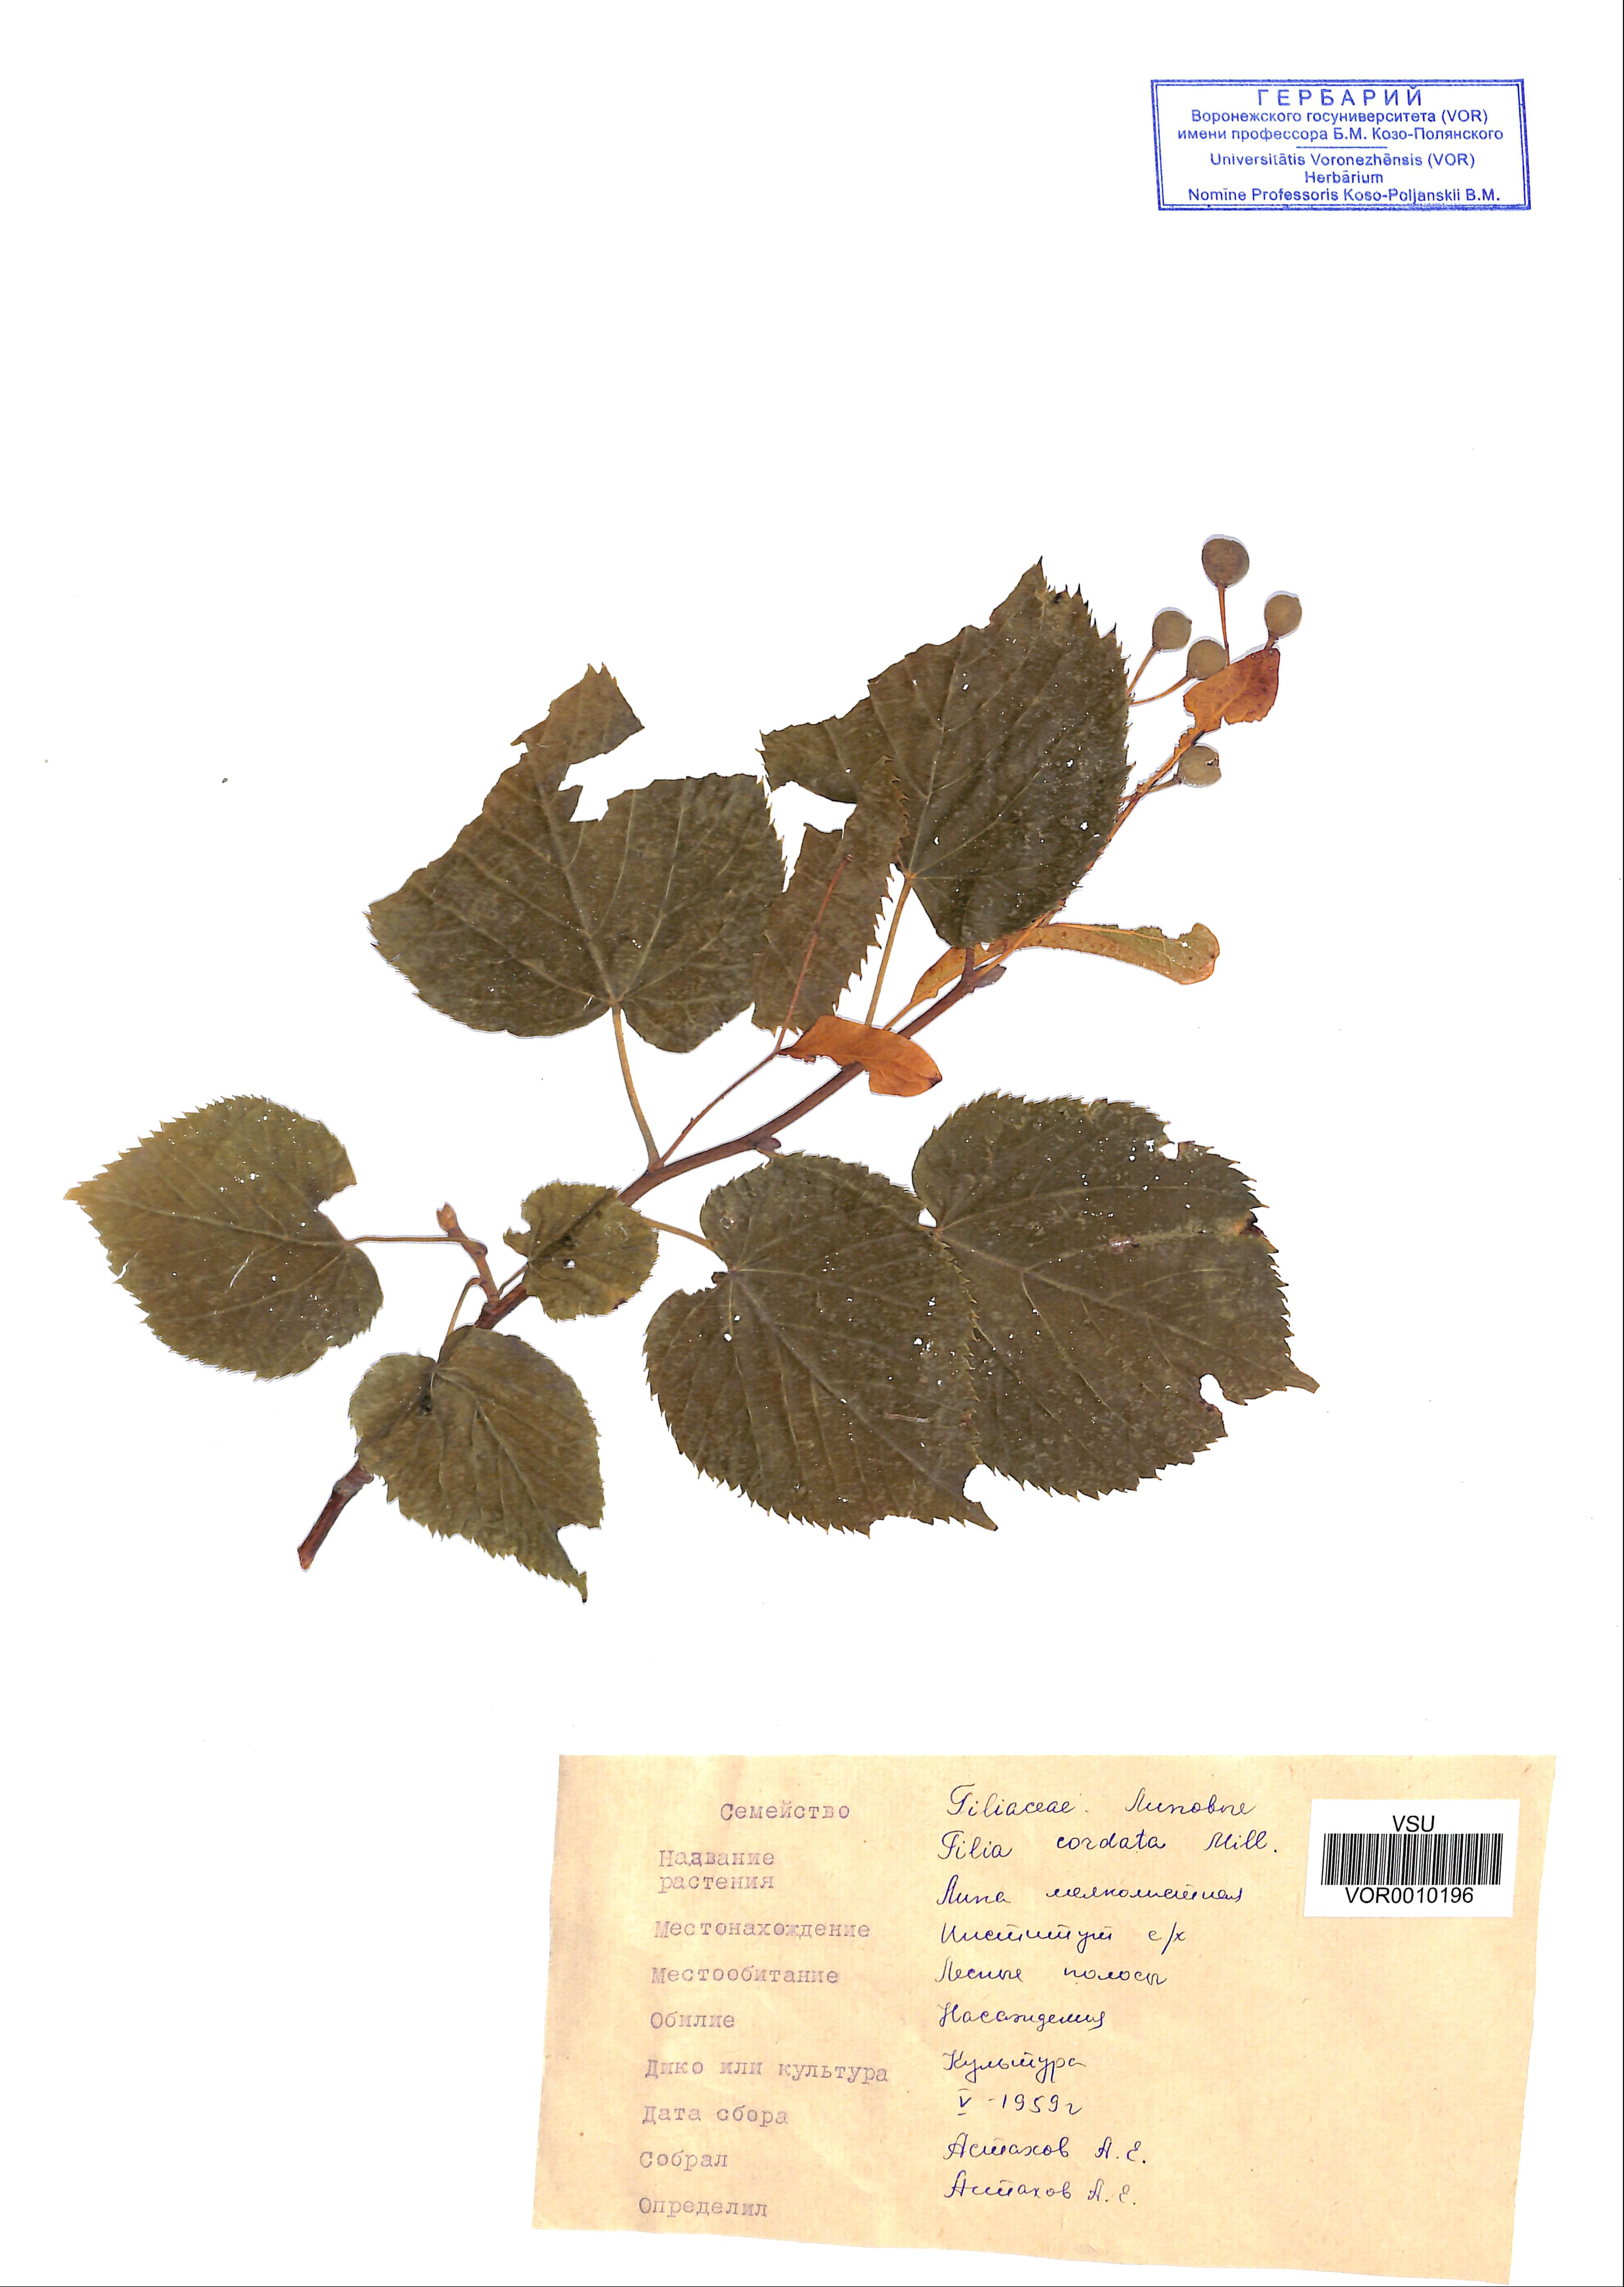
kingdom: Plantae
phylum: Tracheophyta
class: Magnoliopsida
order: Malvales
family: Malvaceae
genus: Tilia
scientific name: Tilia cordata
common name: Small-leaved lime
